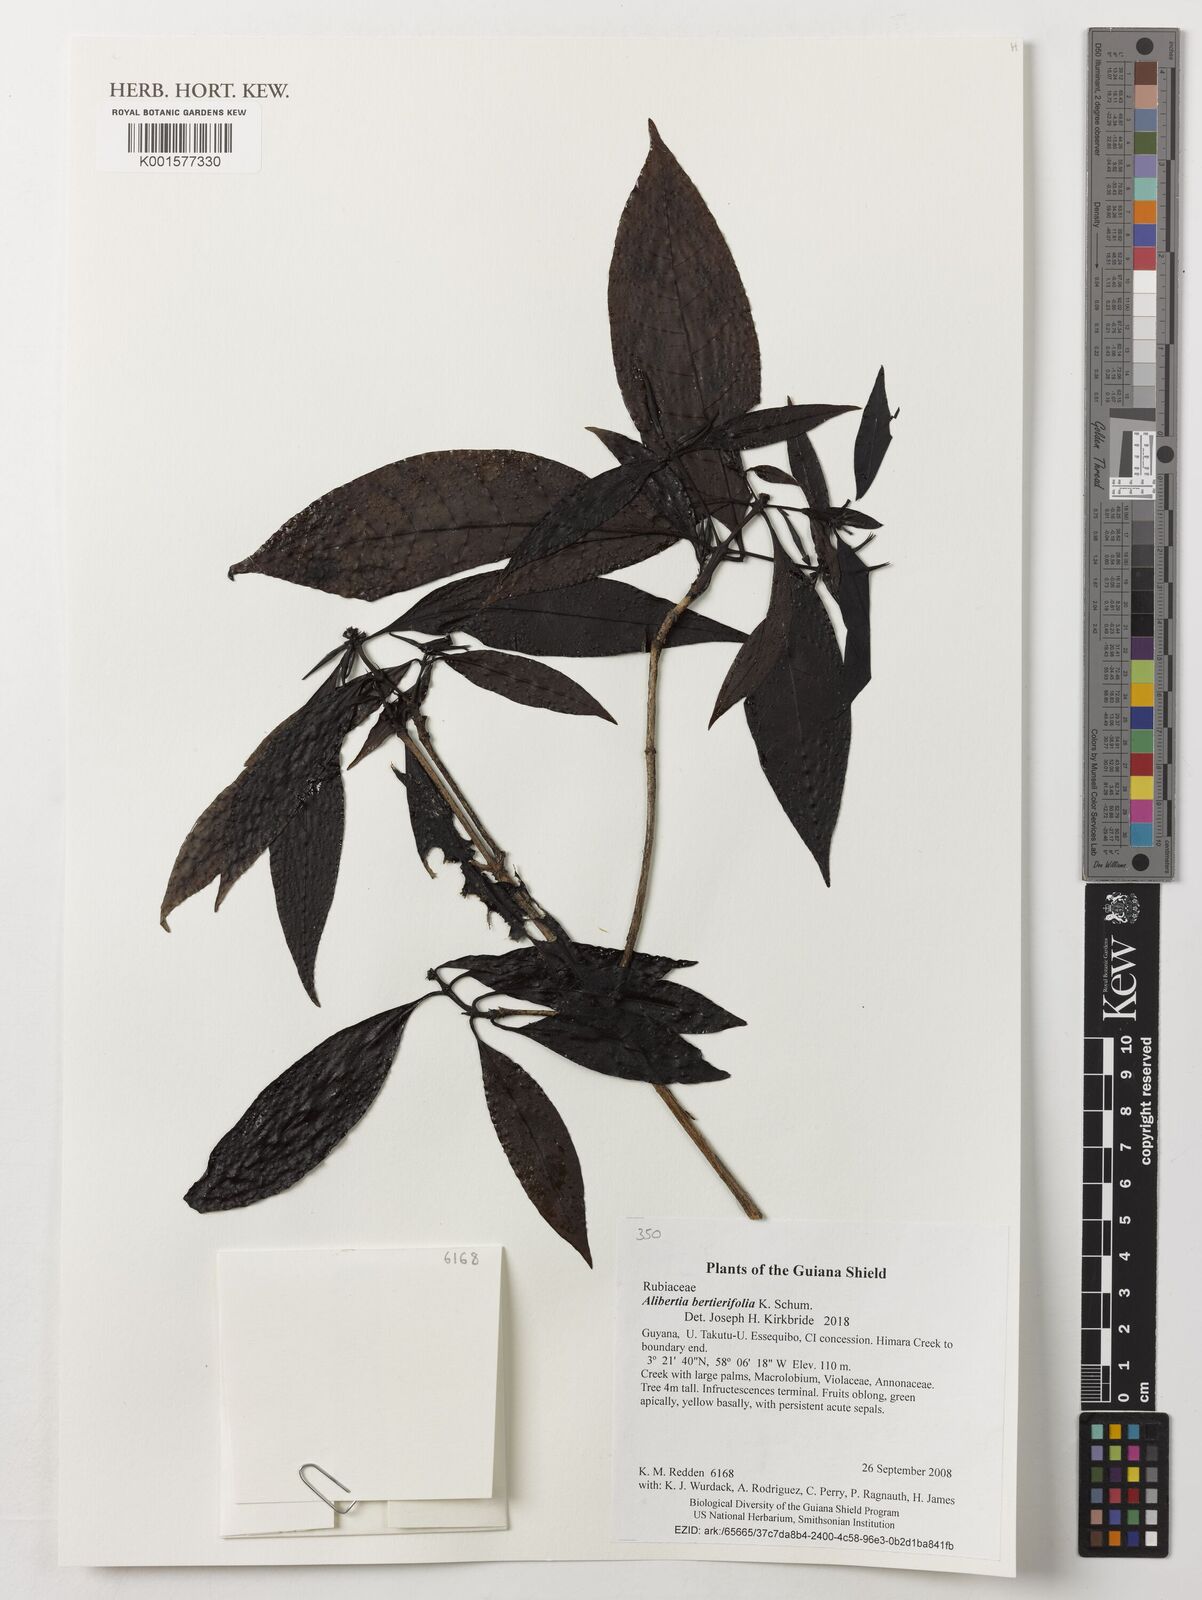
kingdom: Plantae
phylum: Tracheophyta
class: Magnoliopsida
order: Gentianales
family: Rubiaceae
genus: Alibertia
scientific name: Alibertia bertierifolia
